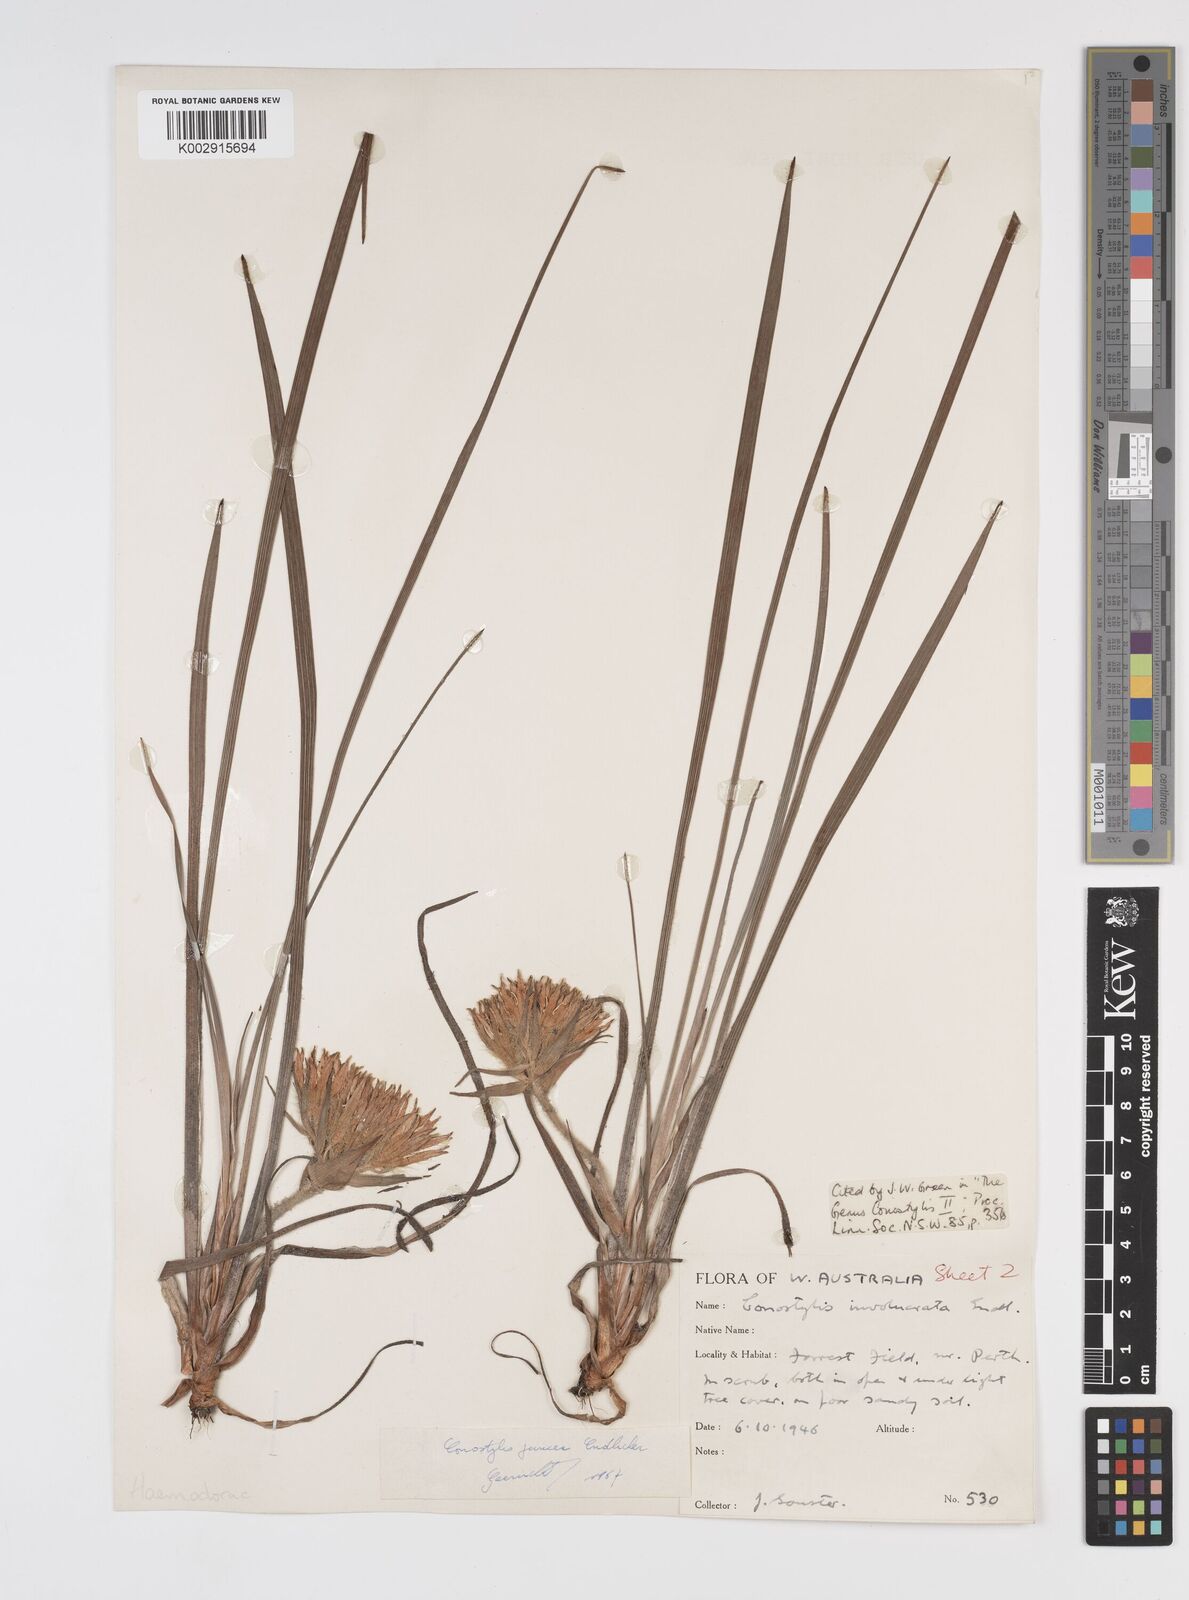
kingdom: Plantae
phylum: Tracheophyta
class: Liliopsida
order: Commelinales
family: Haemodoraceae
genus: Conostylis
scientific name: Conostylis juncea
